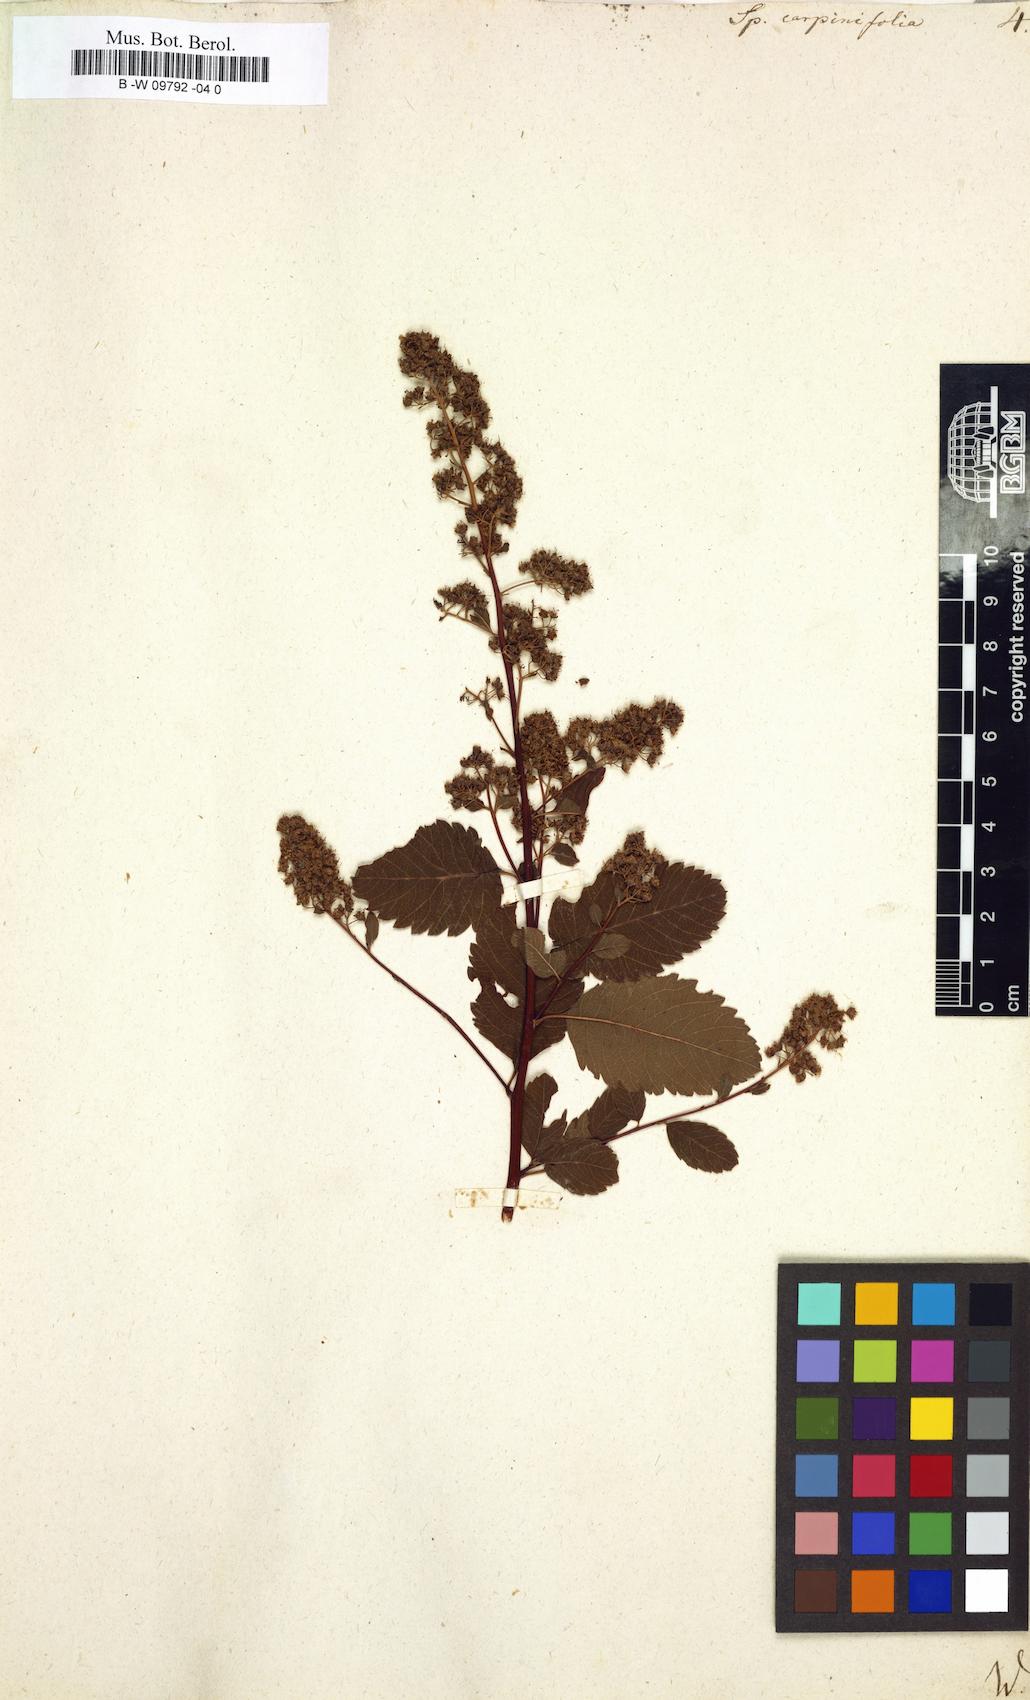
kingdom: Plantae
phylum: Tracheophyta
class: Magnoliopsida
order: Rosales
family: Rosaceae
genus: Spiraea
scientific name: Spiraea
